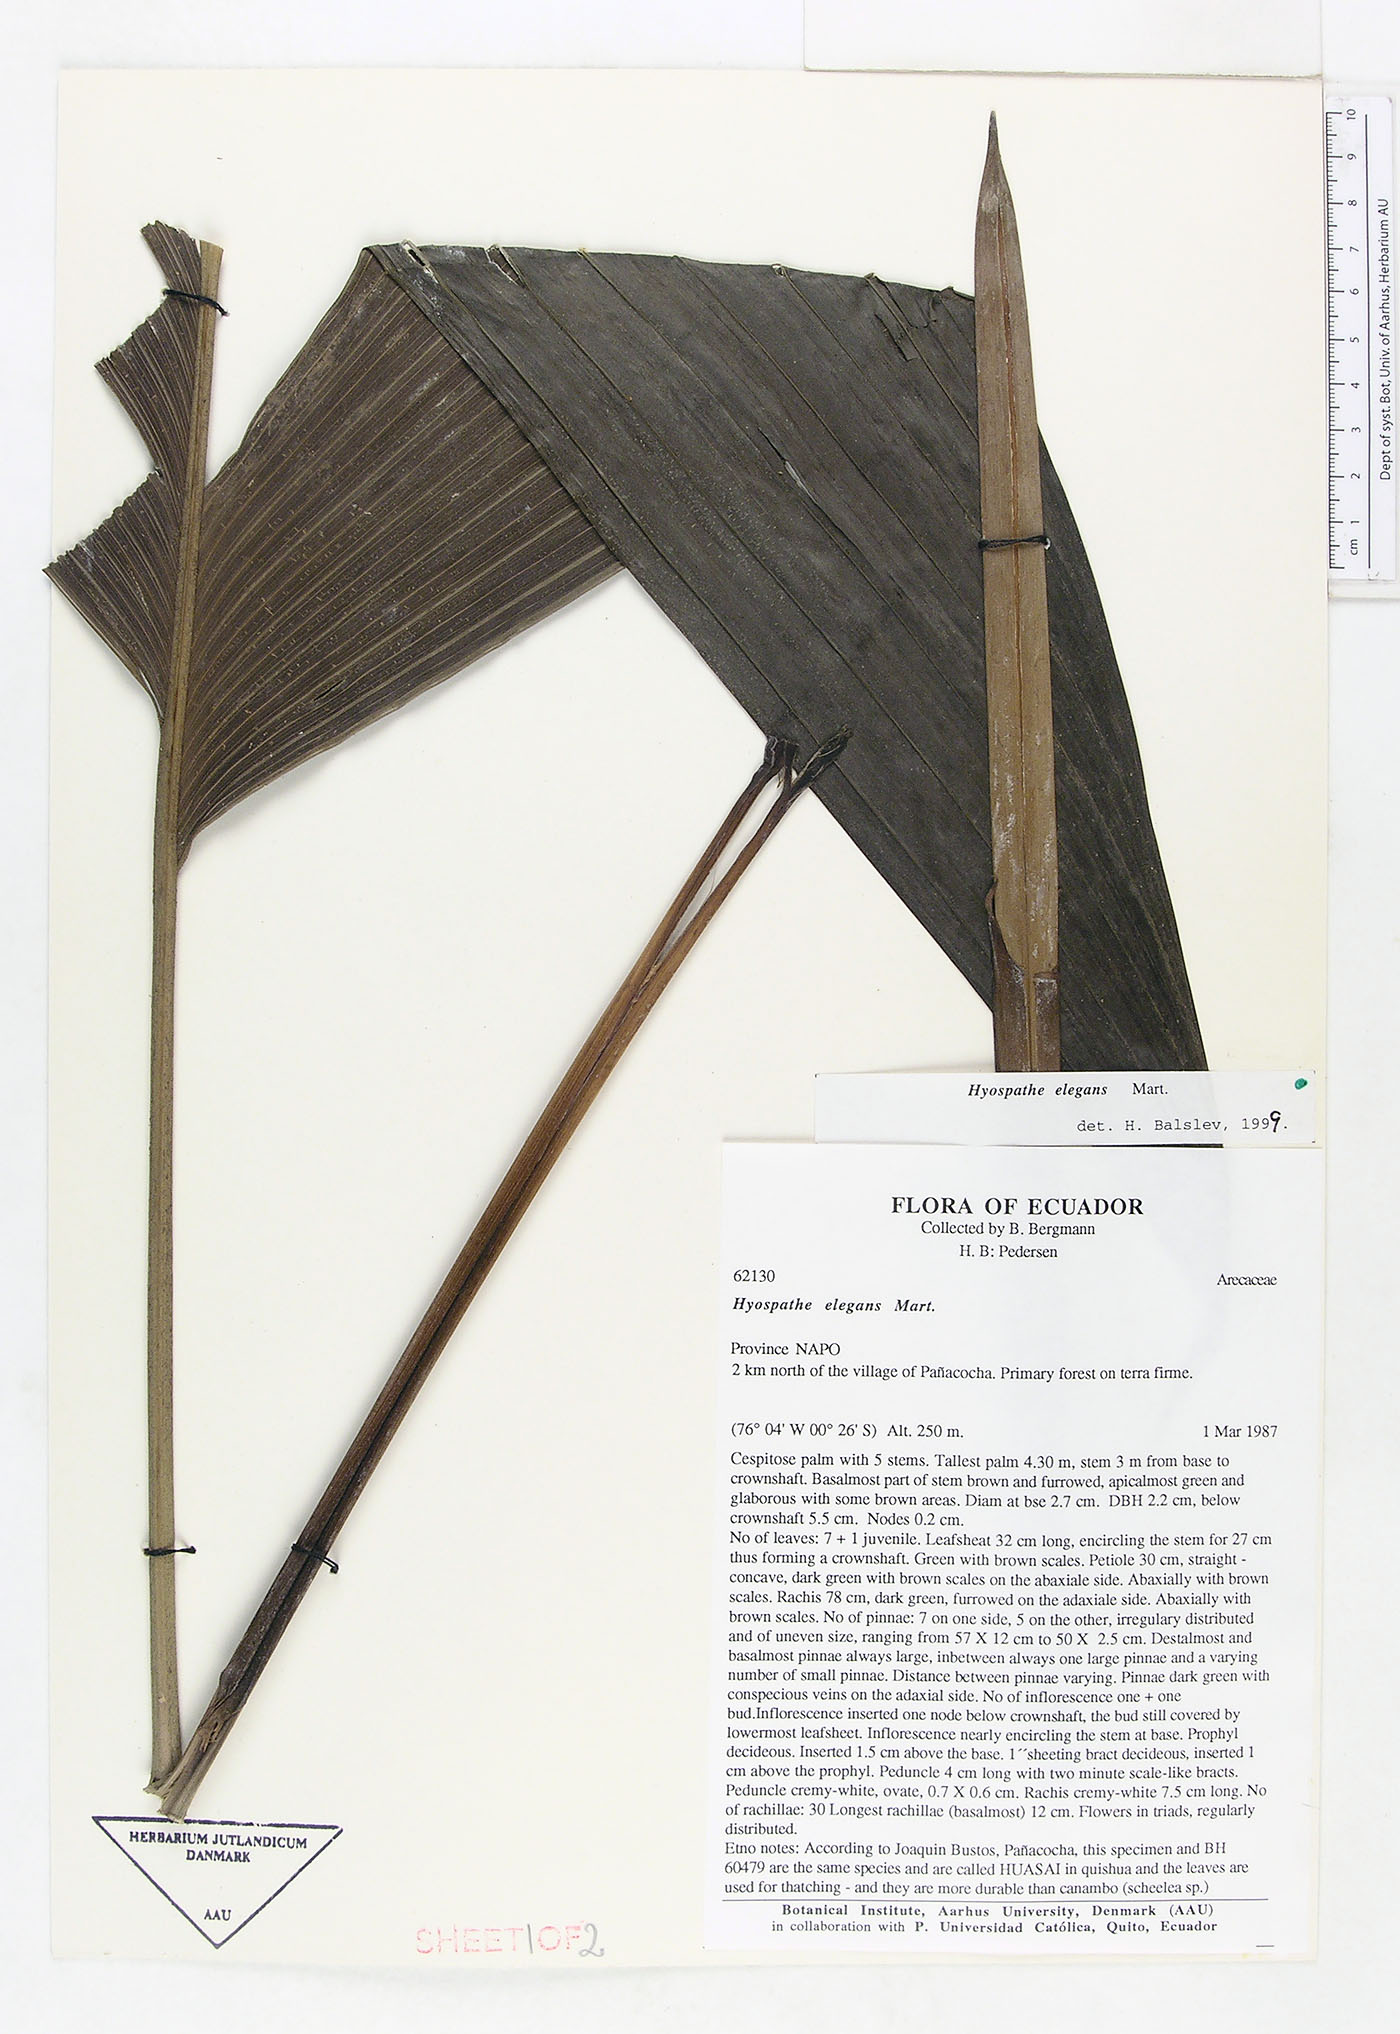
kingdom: Plantae
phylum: Tracheophyta
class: Liliopsida
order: Arecales
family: Arecaceae
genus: Hyospathe
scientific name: Hyospathe elegans
